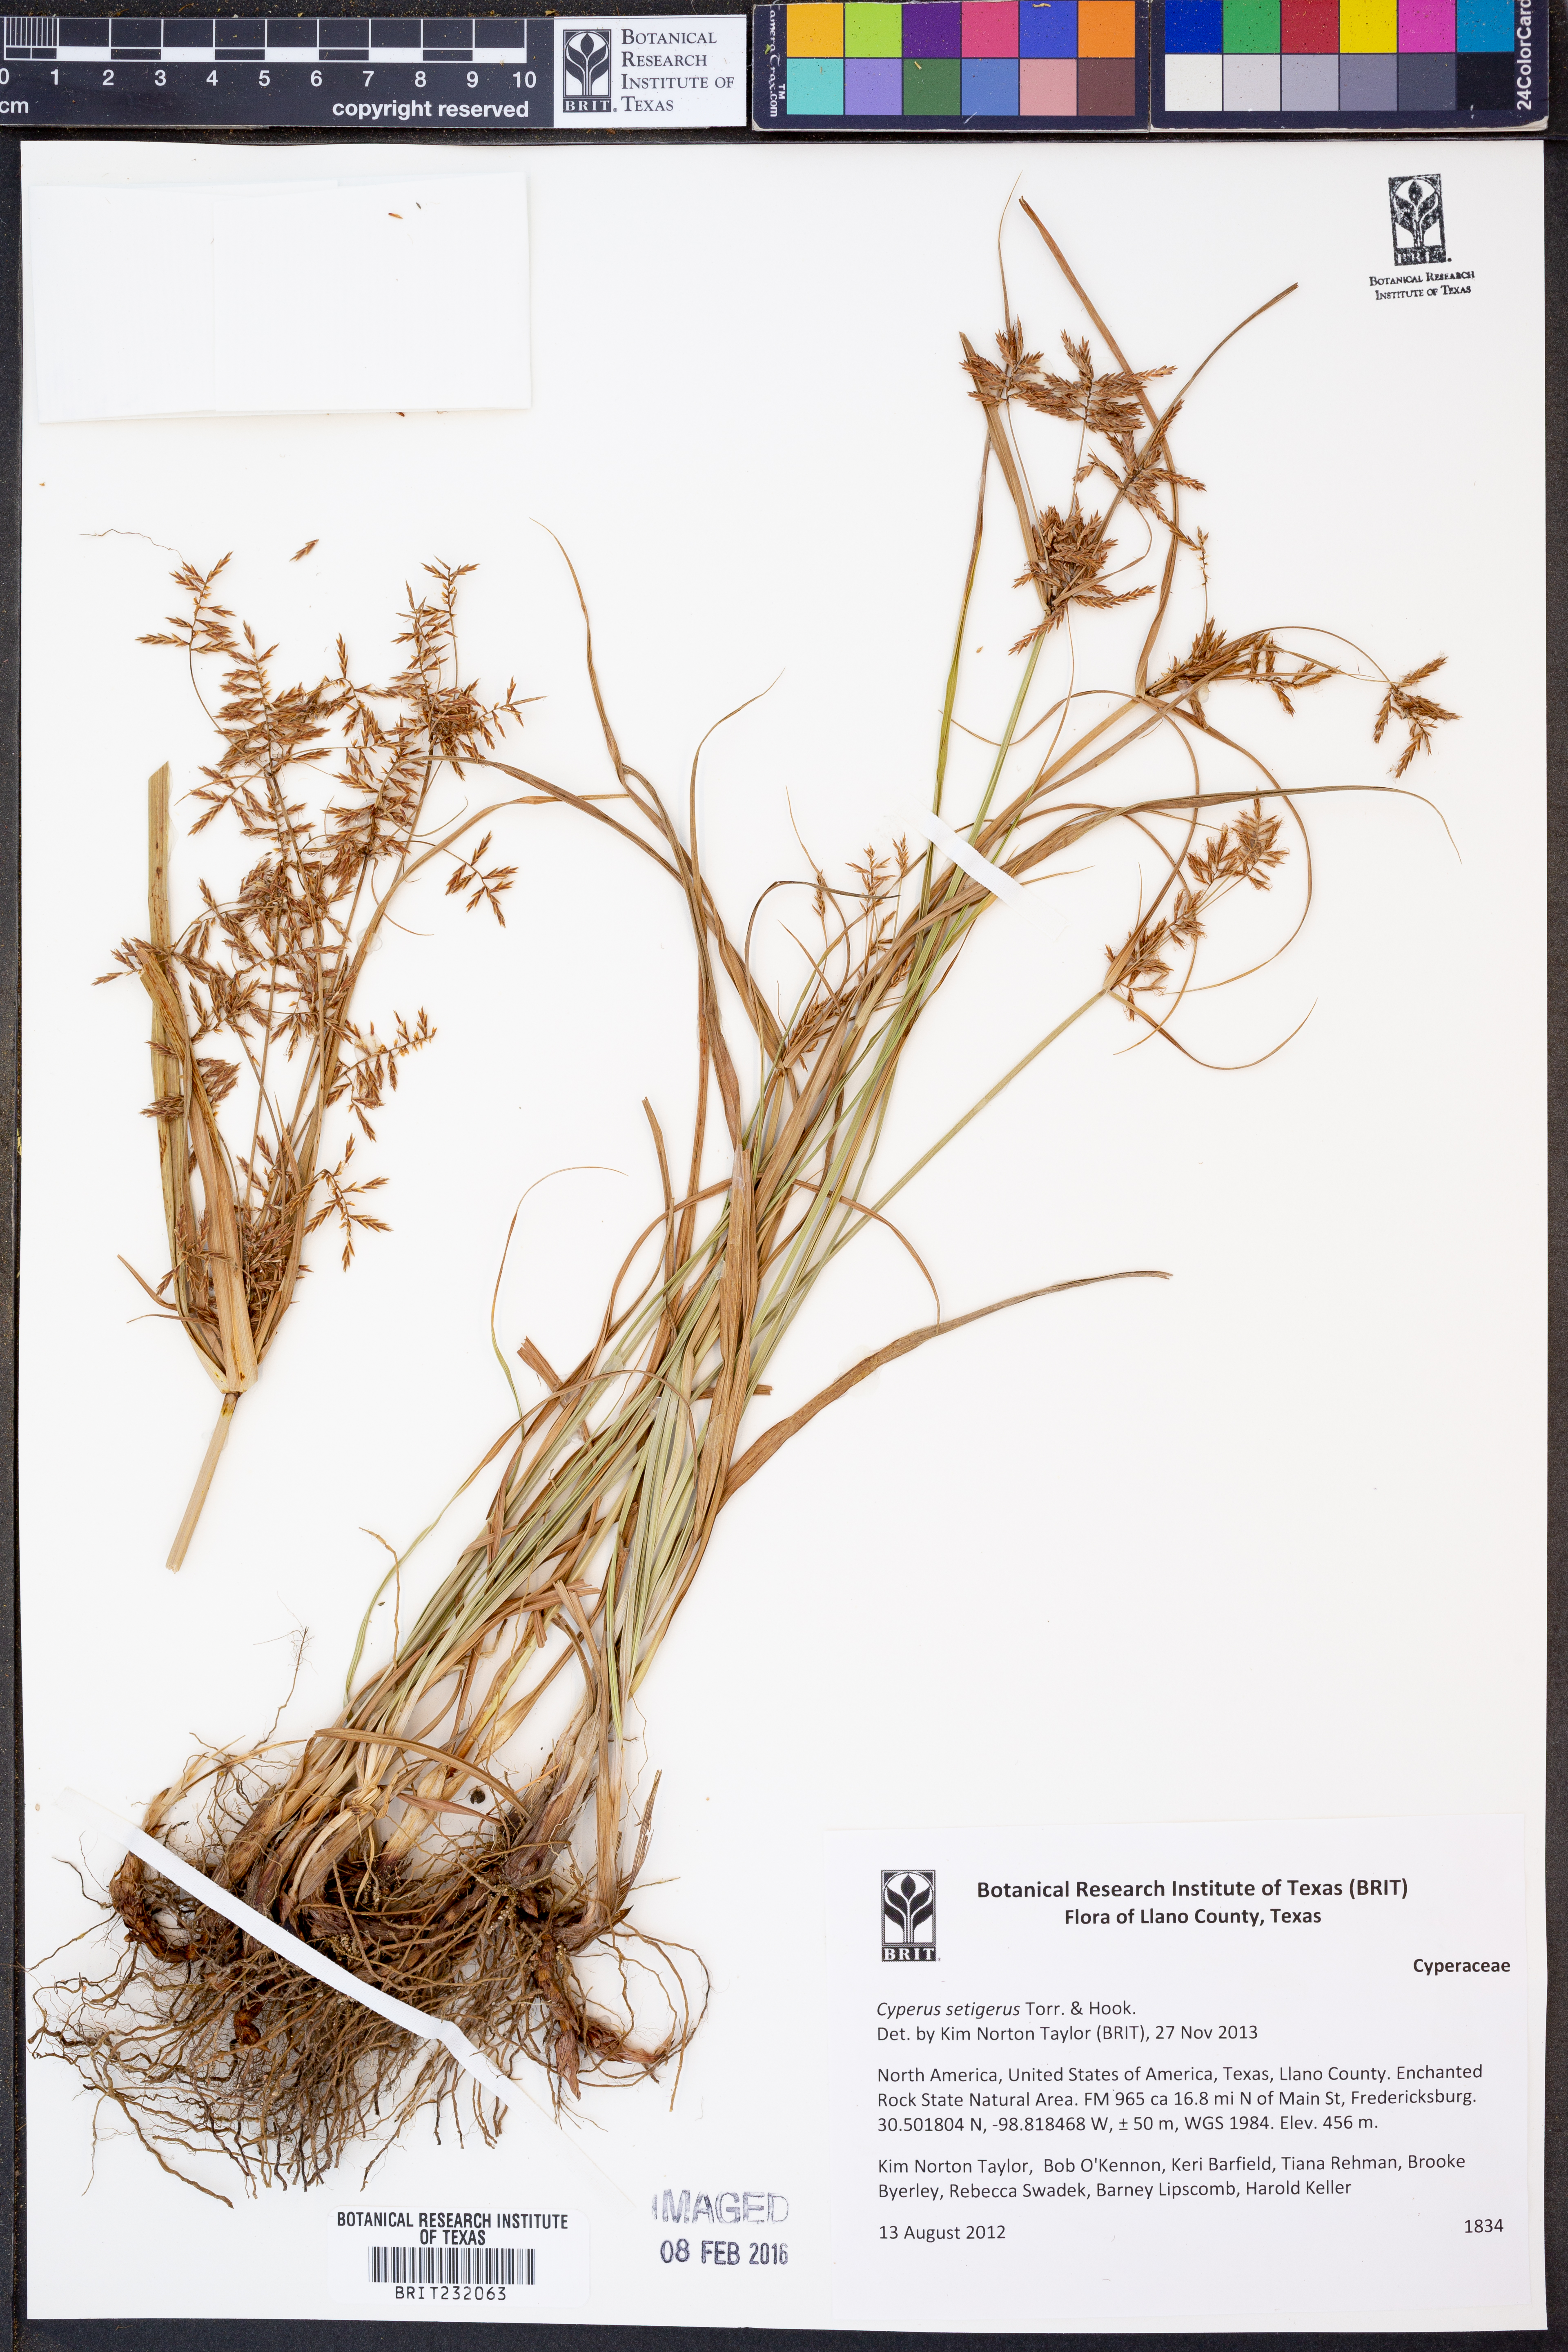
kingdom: Plantae
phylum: Tracheophyta
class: Liliopsida
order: Poales
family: Cyperaceae
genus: Cyperus
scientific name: Cyperus setigerus
